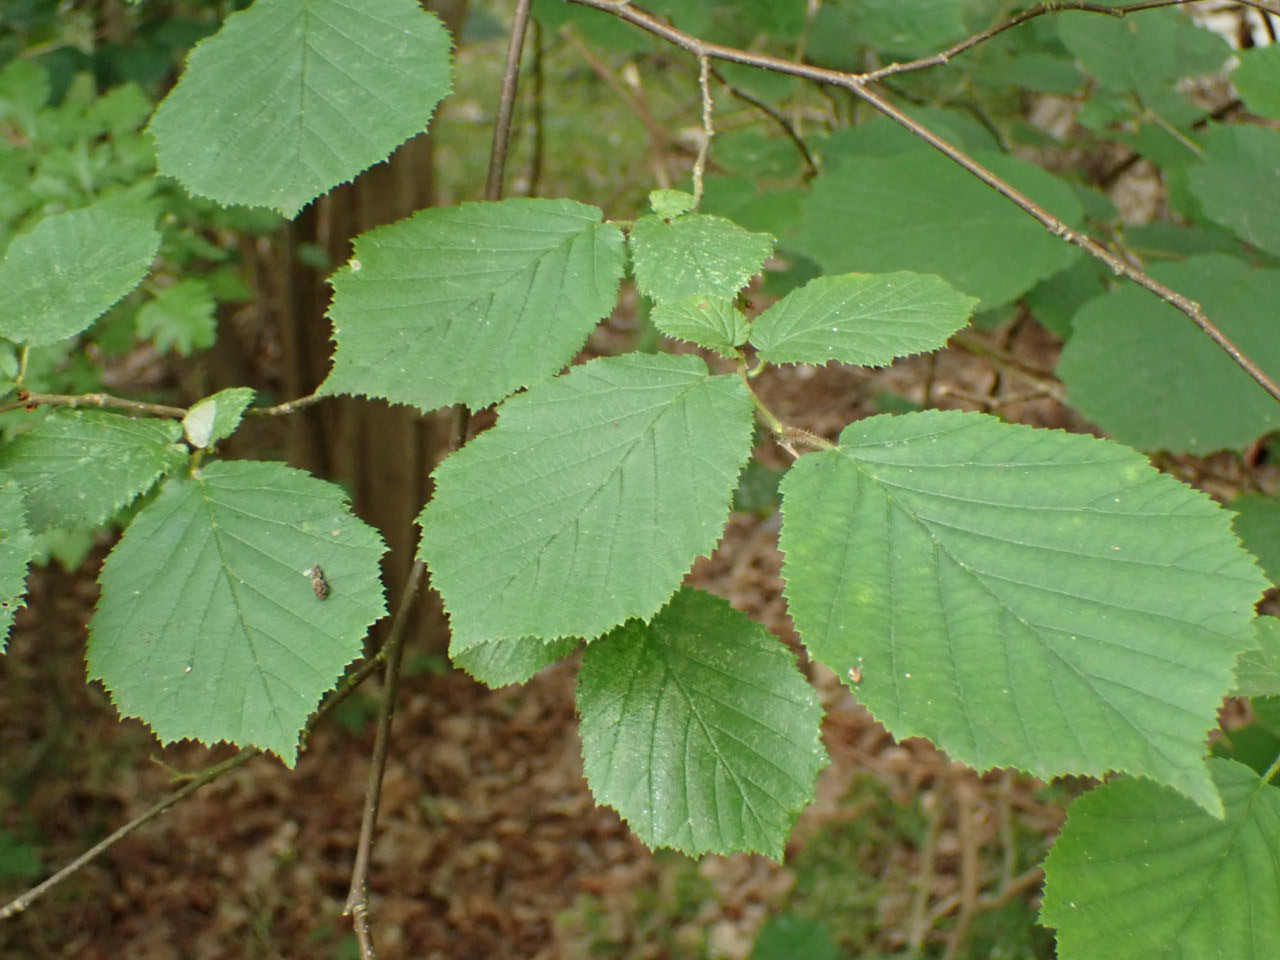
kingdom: Plantae
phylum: Tracheophyta
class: Magnoliopsida
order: Fagales
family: Betulaceae
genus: Corylus
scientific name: Corylus avellana
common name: Hassel
